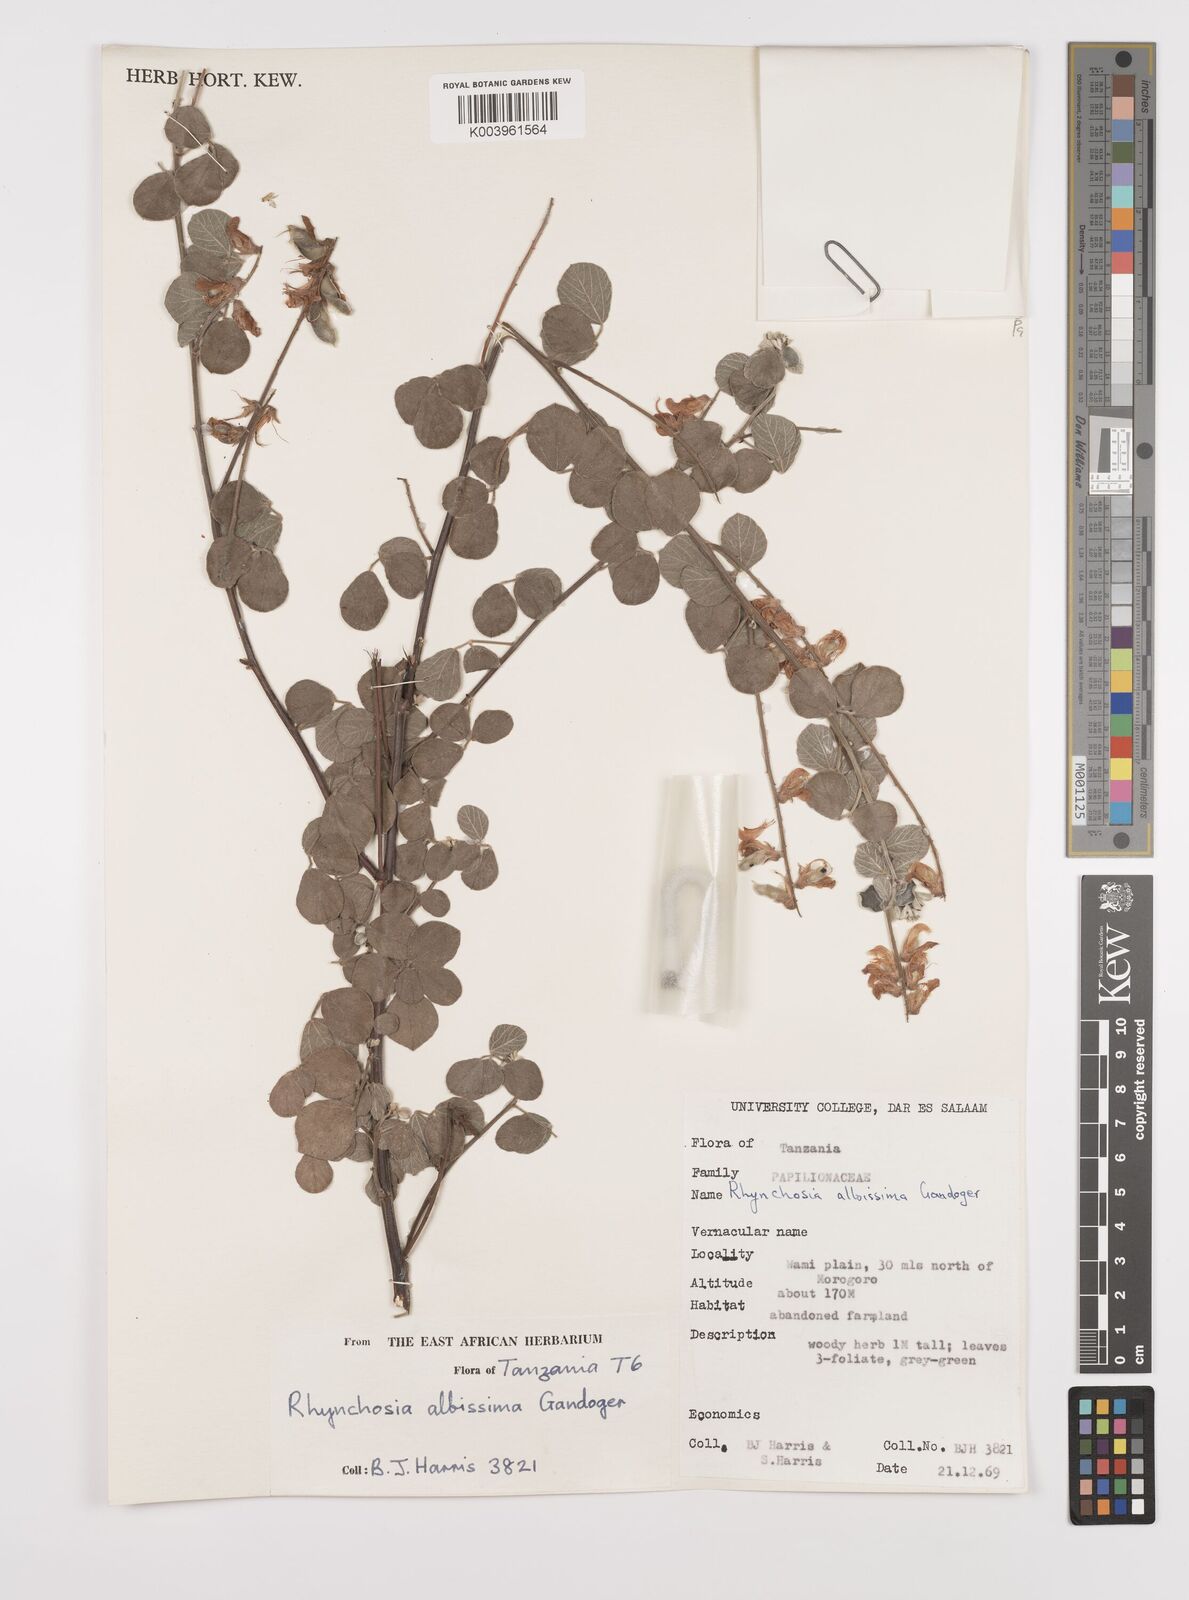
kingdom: Plantae
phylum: Tracheophyta
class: Magnoliopsida
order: Fabales
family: Fabaceae
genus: Rhynchosia
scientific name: Rhynchosia albissima
